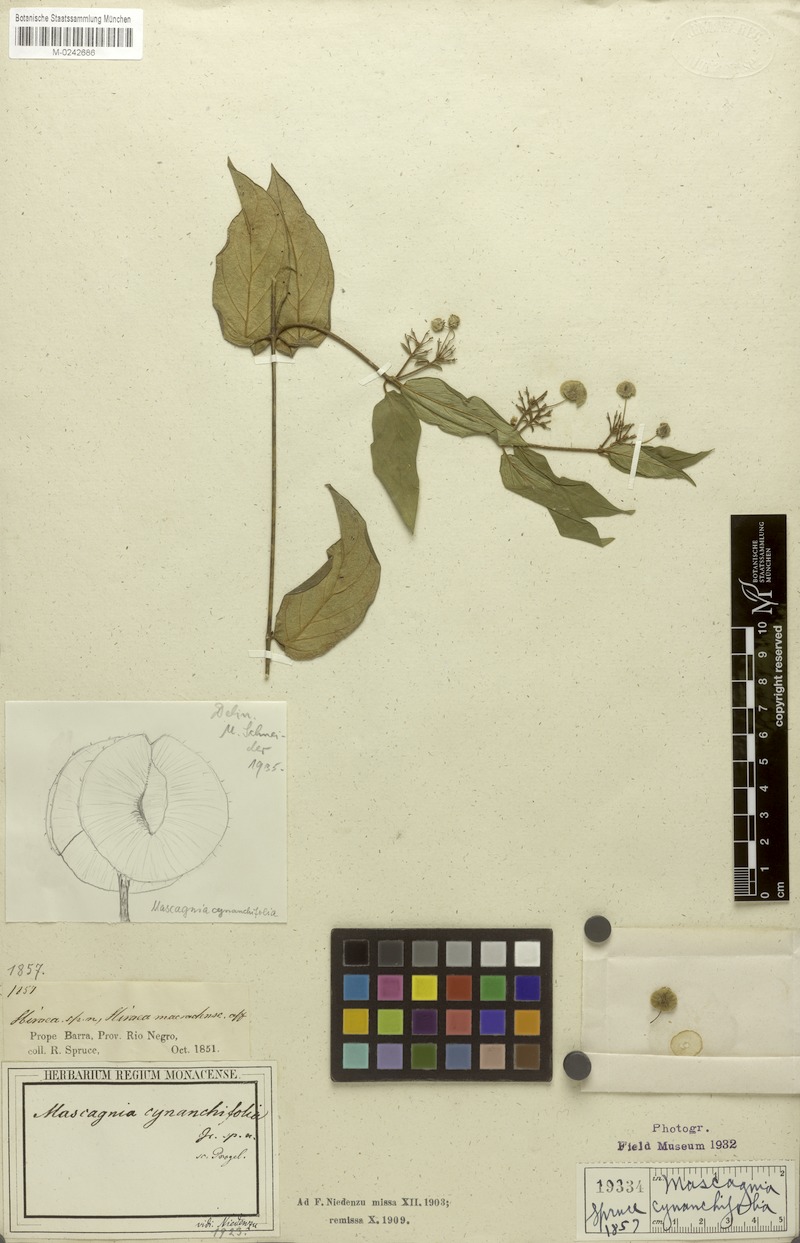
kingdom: Plantae
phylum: Tracheophyta
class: Magnoliopsida
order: Malpighiales
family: Malpighiaceae
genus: Mascagnia
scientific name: Mascagnia cynanchifolia
